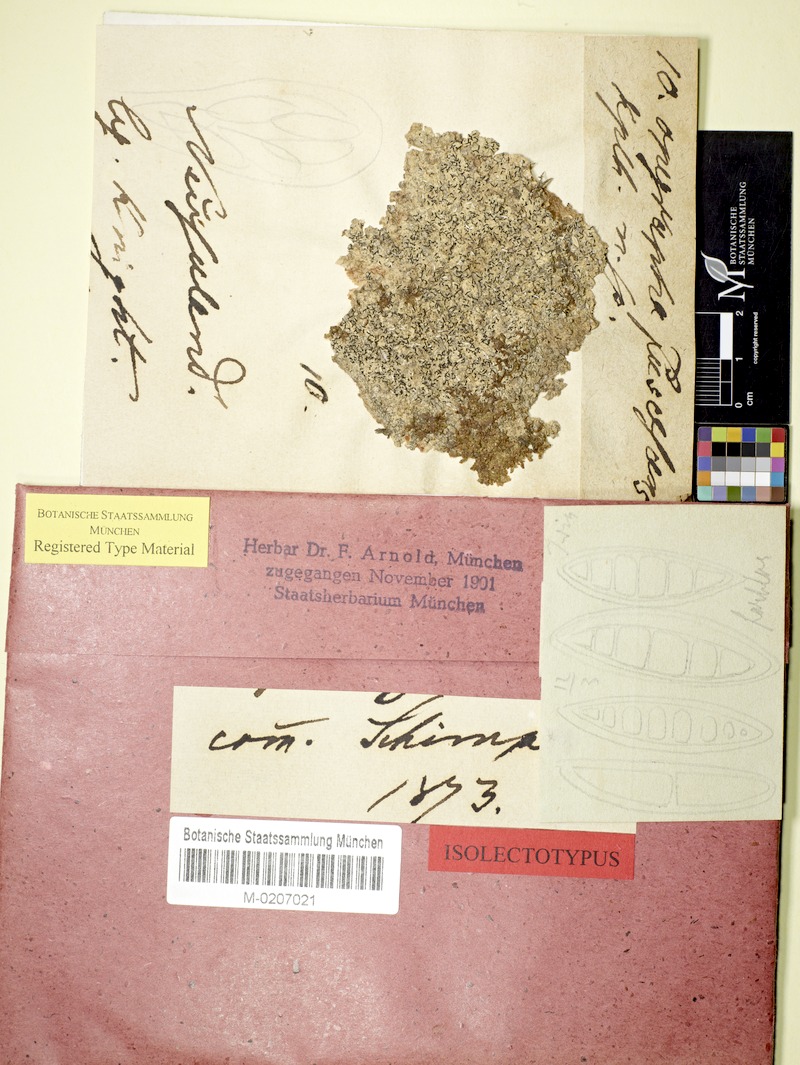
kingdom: Fungi
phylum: Ascomycota
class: Arthoniomycetes
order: Arthoniales
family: Opegraphaceae
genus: Opegrapha
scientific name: Opegrapha agelaeoides
